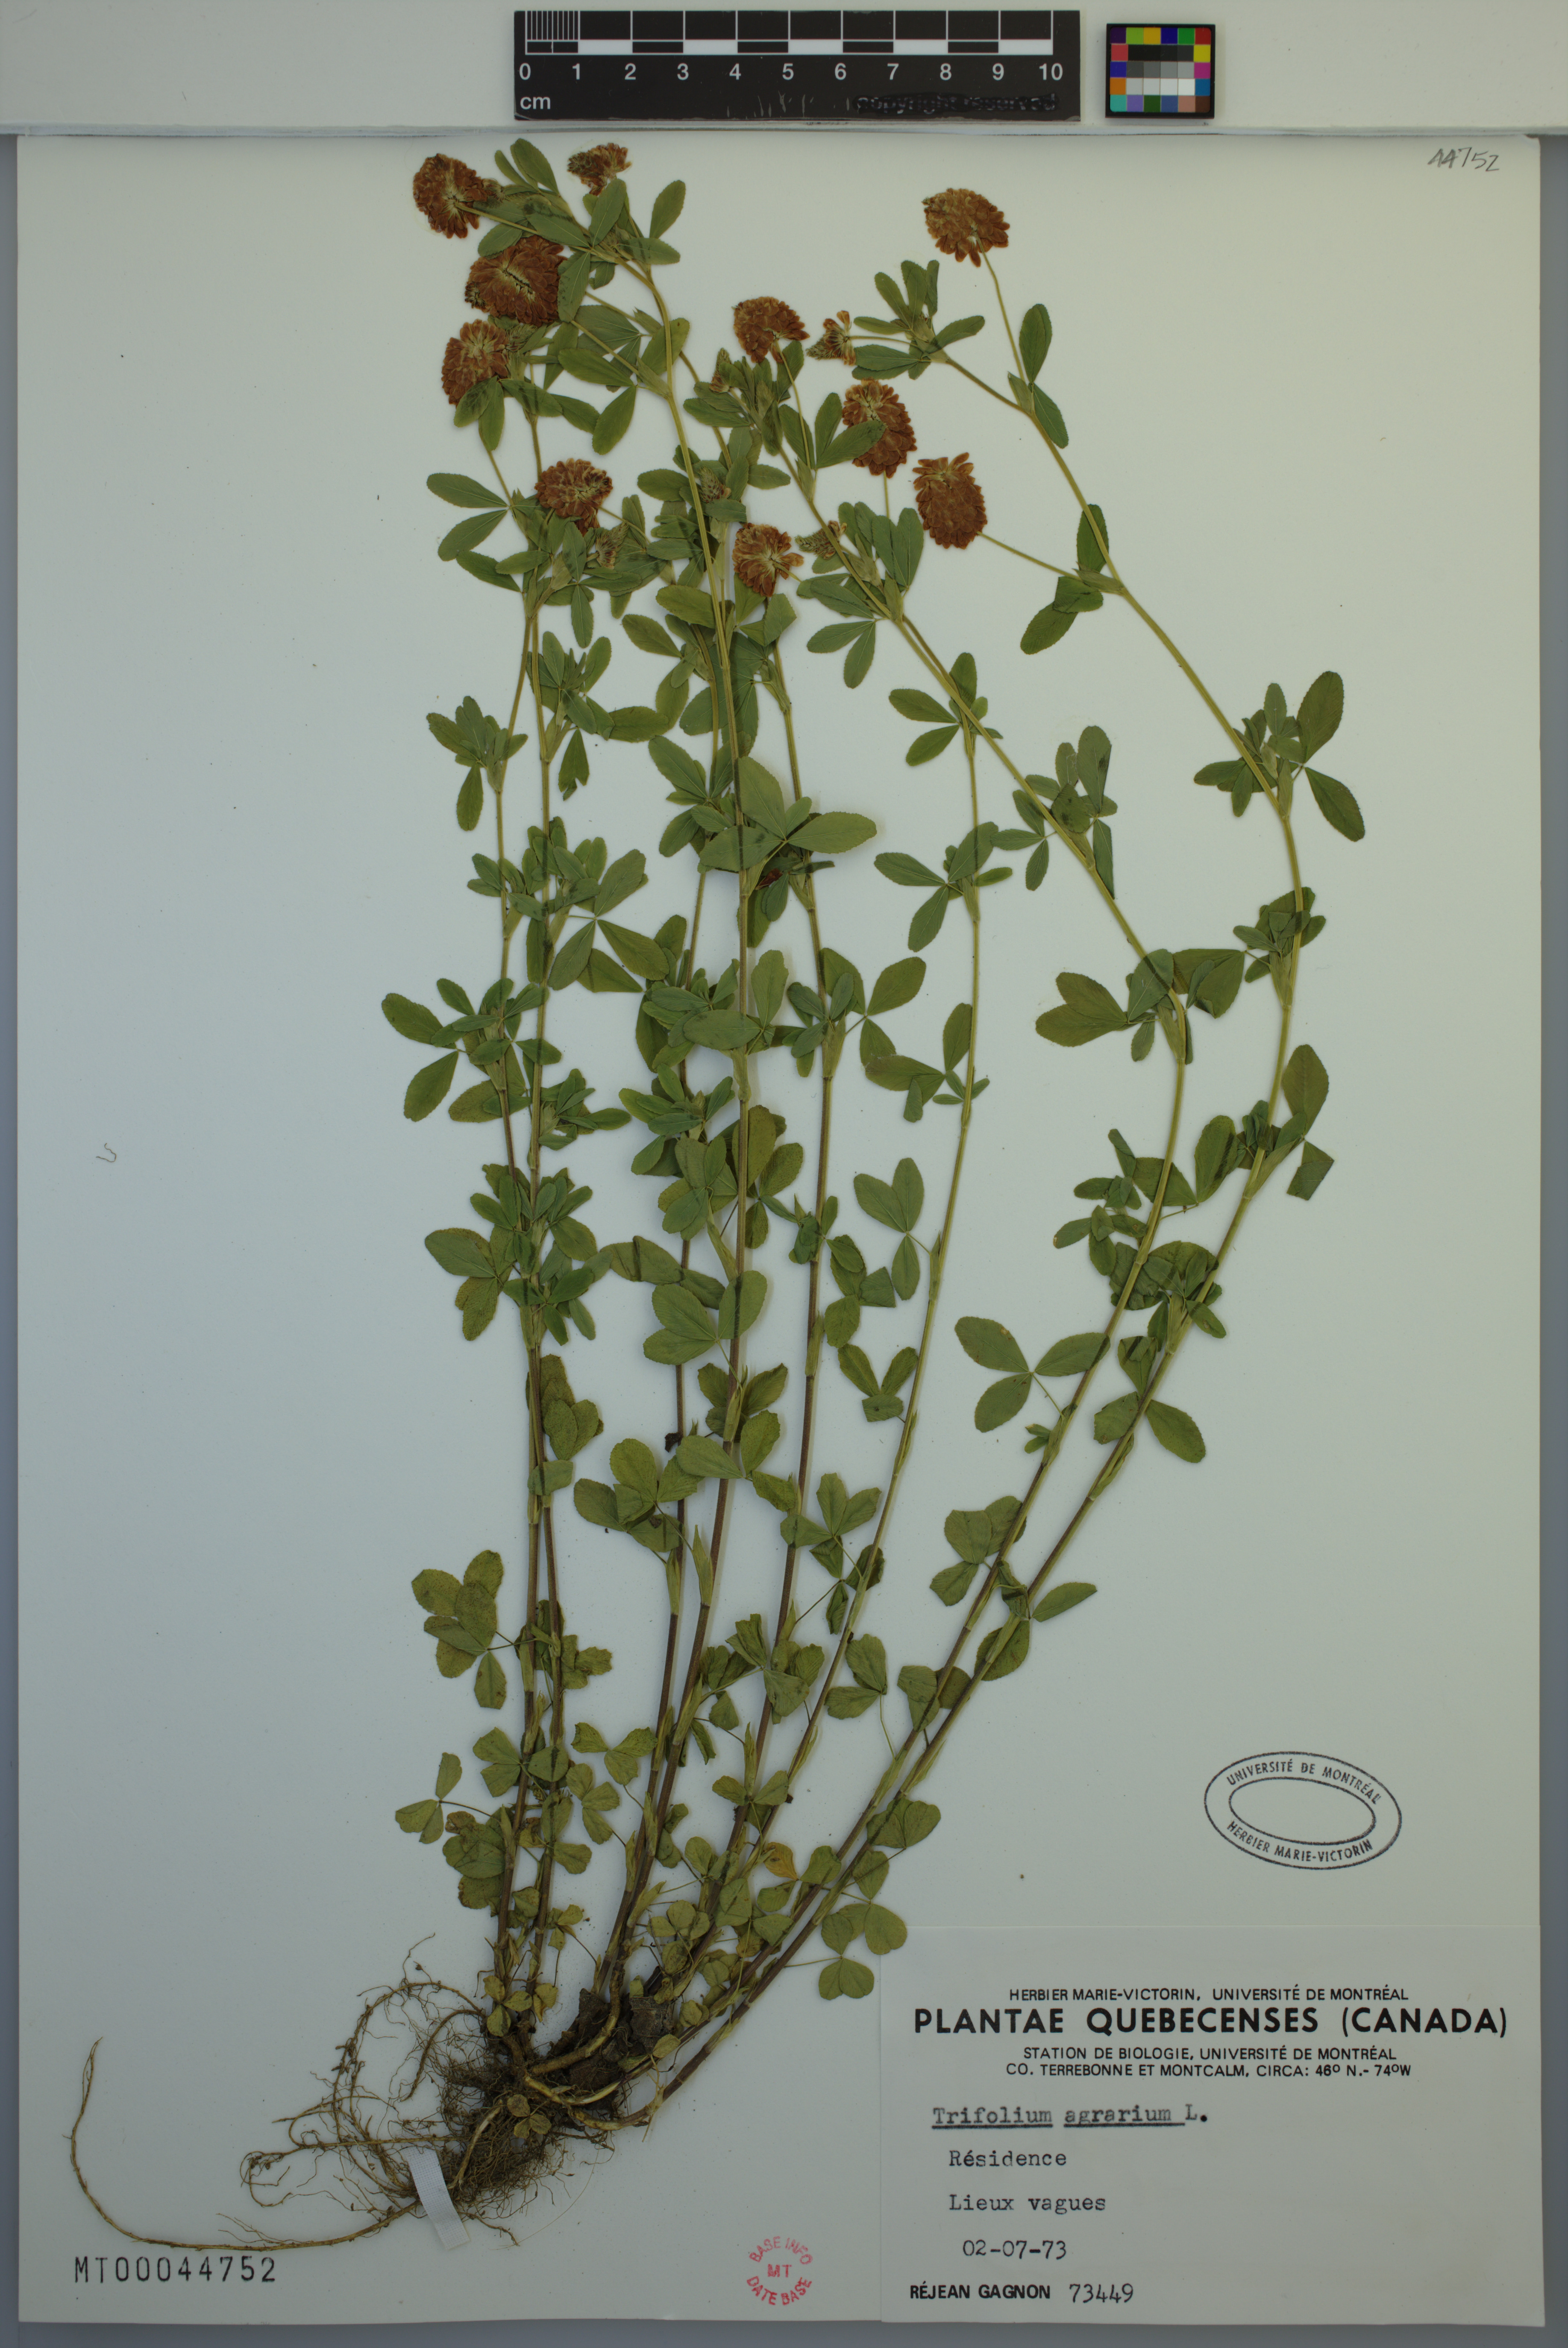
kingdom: Plantae
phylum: Tracheophyta
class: Magnoliopsida
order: Fabales
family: Fabaceae
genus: Trifolium
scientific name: Trifolium aureum
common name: Golden clover
